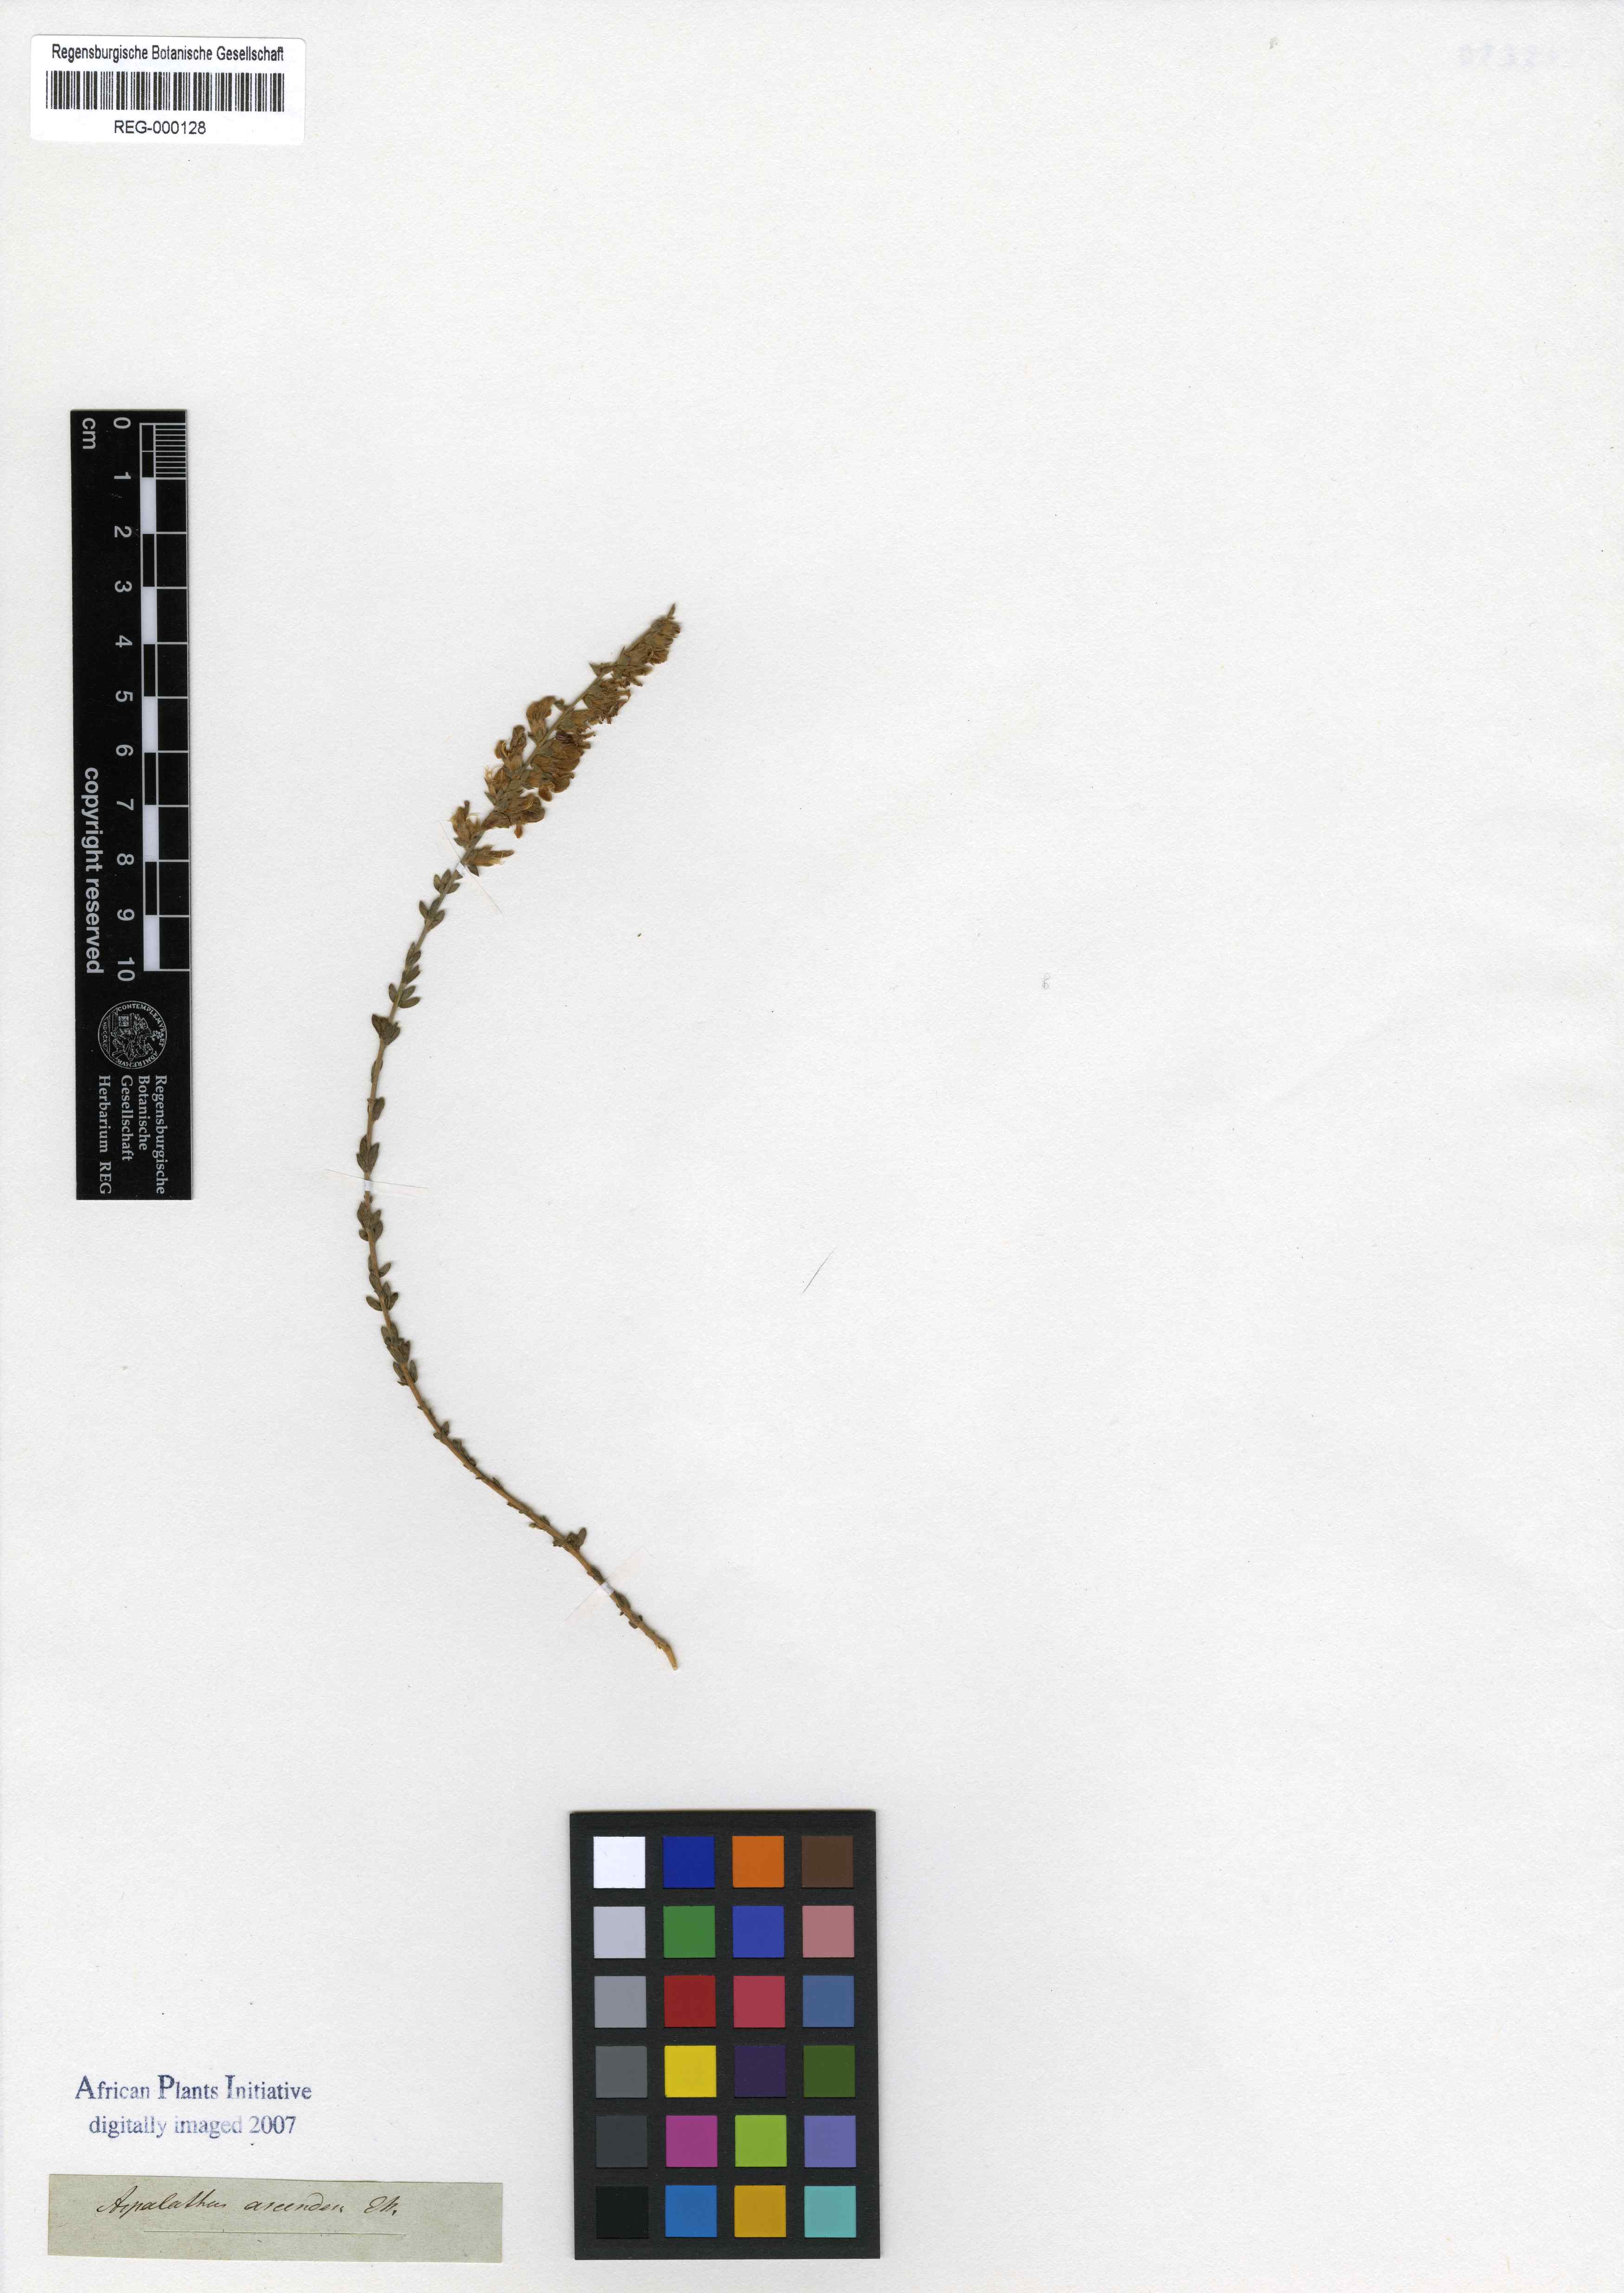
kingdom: Plantae
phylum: Tracheophyta
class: Magnoliopsida
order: Fabales
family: Fabaceae
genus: Aspalathus
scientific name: Aspalathus quinquefolia
